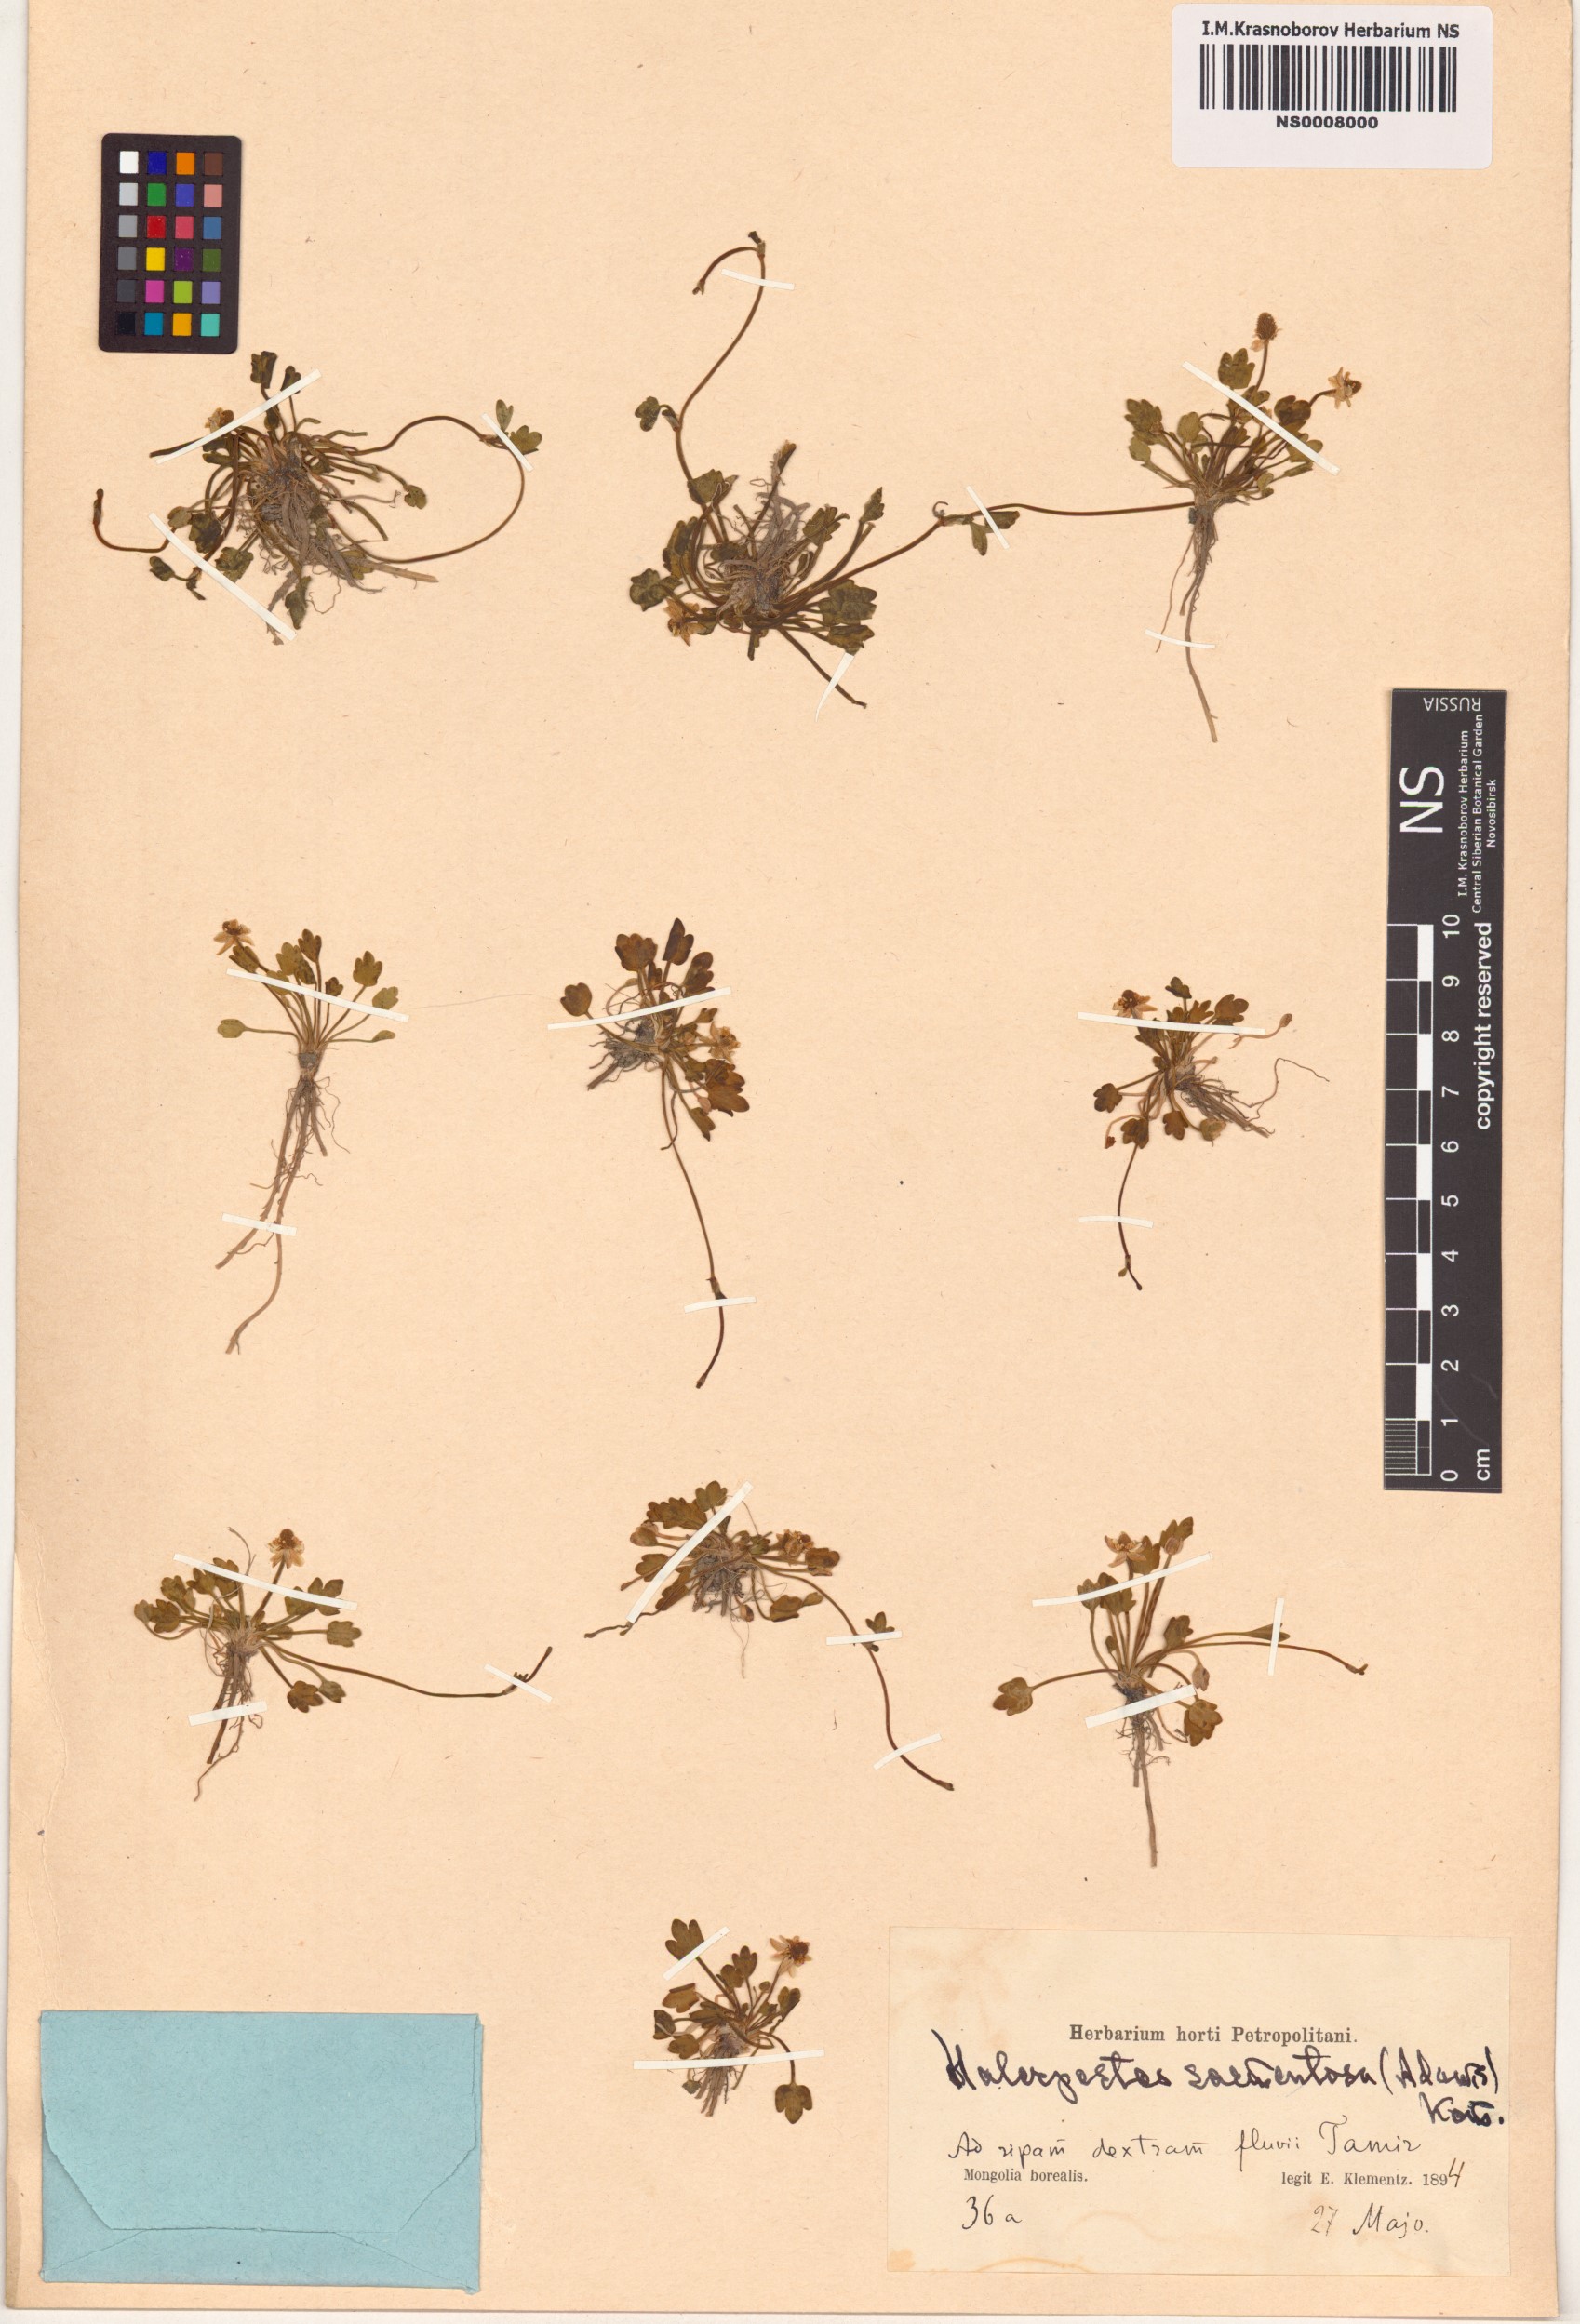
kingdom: Plantae
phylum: Tracheophyta
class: Magnoliopsida
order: Ranunculales
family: Ranunculaceae
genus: Halerpestes
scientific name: Halerpestes sarmentosus
